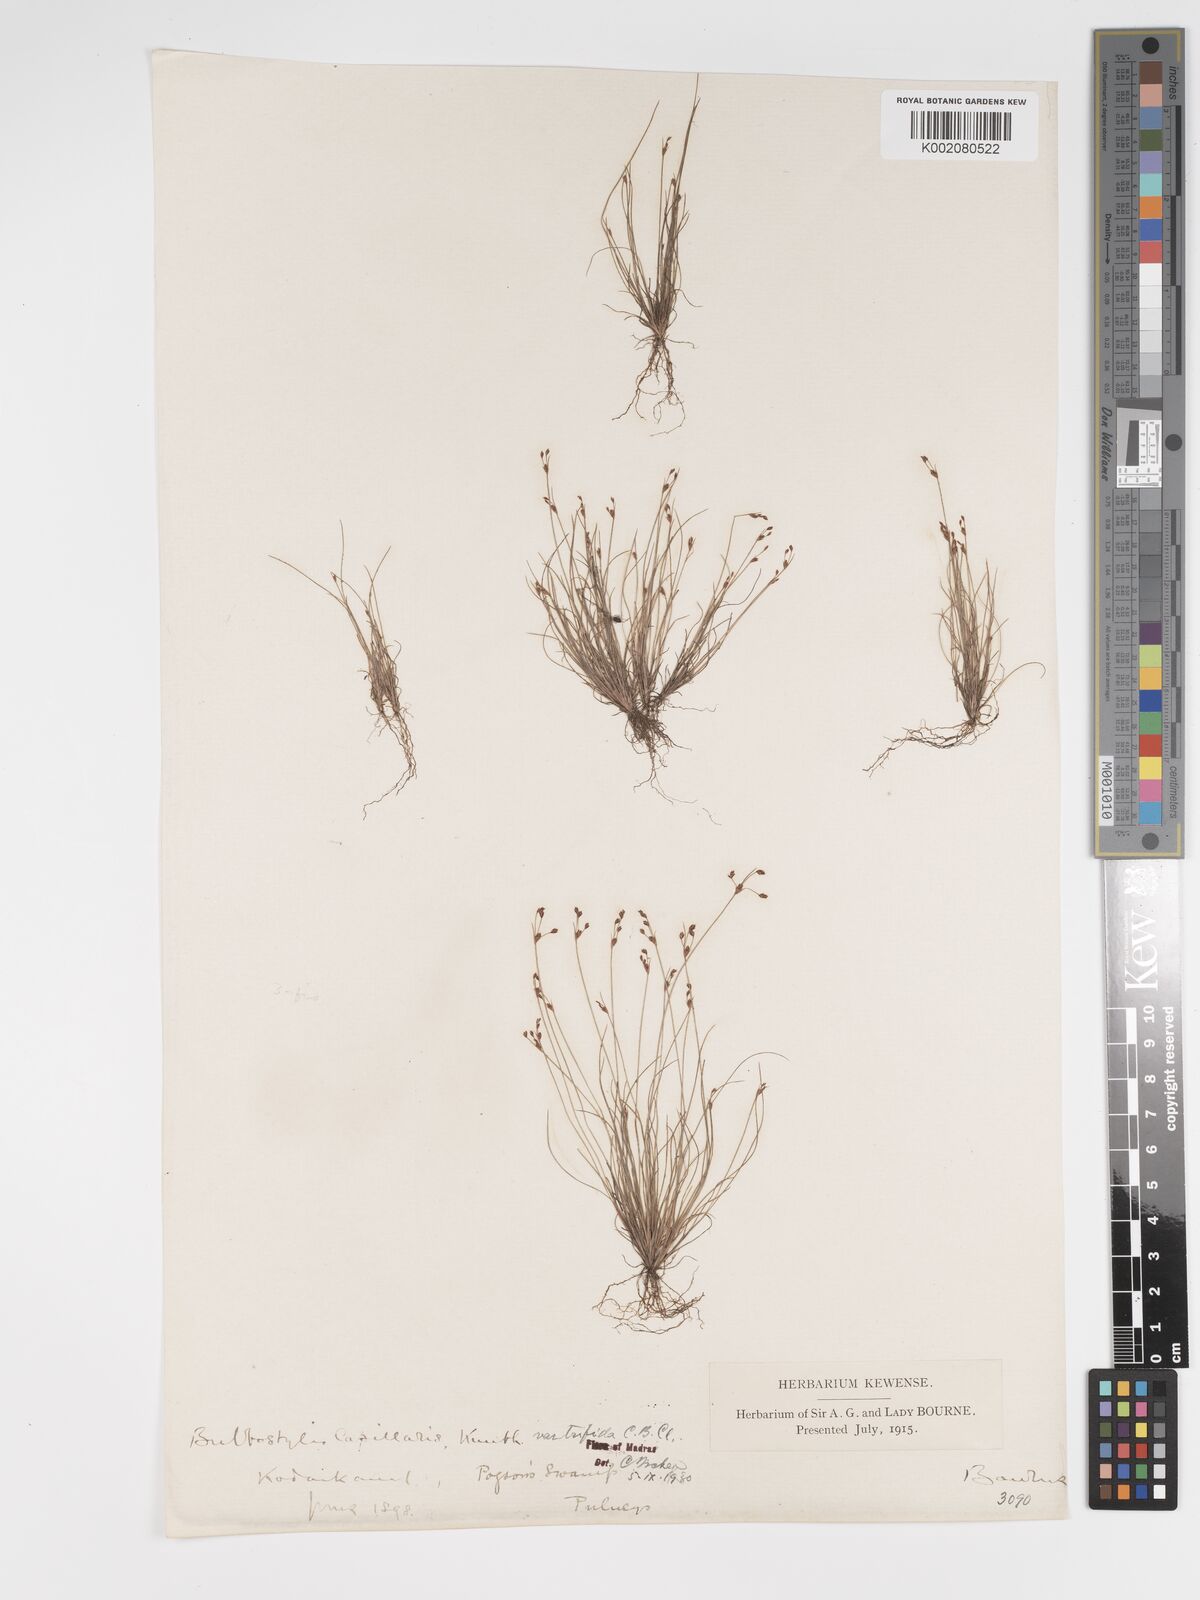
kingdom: Plantae
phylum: Tracheophyta
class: Liliopsida
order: Poales
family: Cyperaceae
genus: Bulbostylis
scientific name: Bulbostylis capillaris
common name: Densetuft hairsedge
